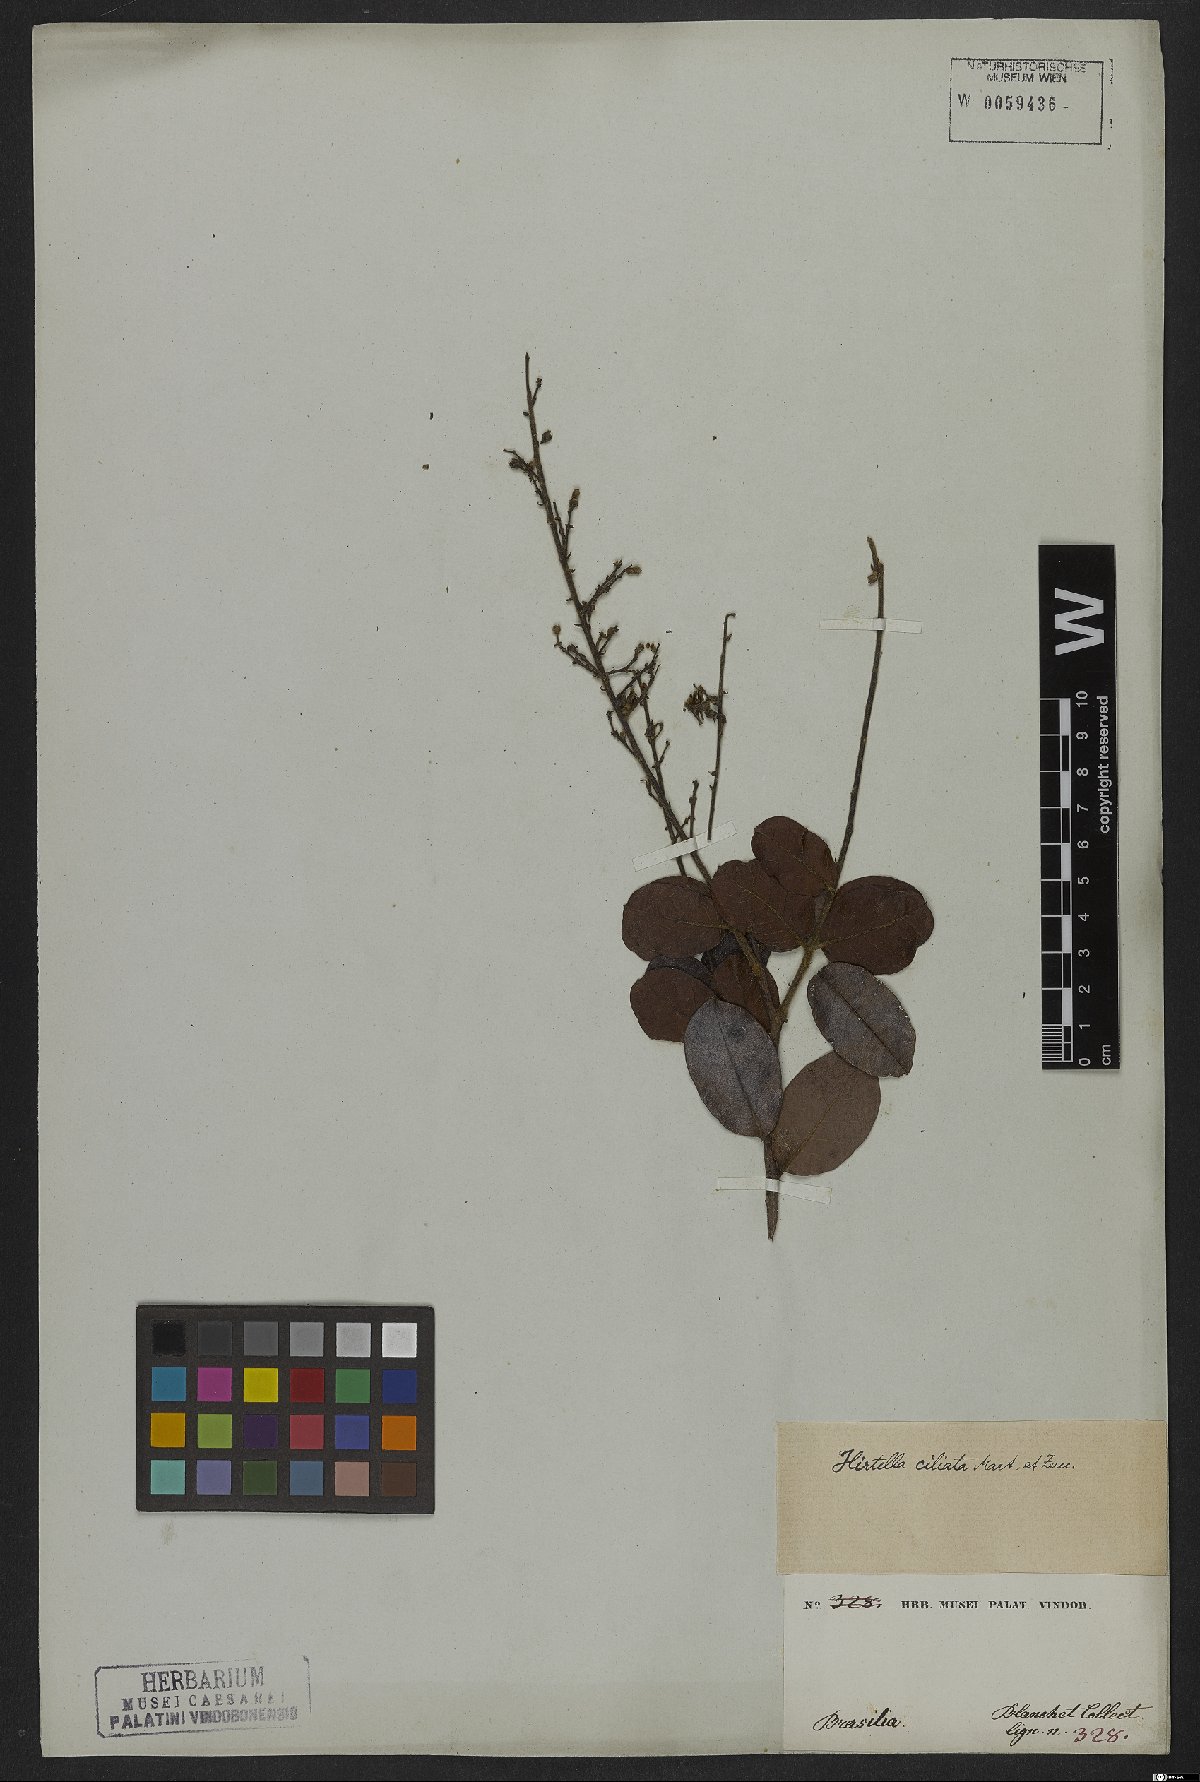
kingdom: Plantae
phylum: Tracheophyta
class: Magnoliopsida
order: Malpighiales
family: Chrysobalanaceae
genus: Hirtella
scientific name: Hirtella ciliata
